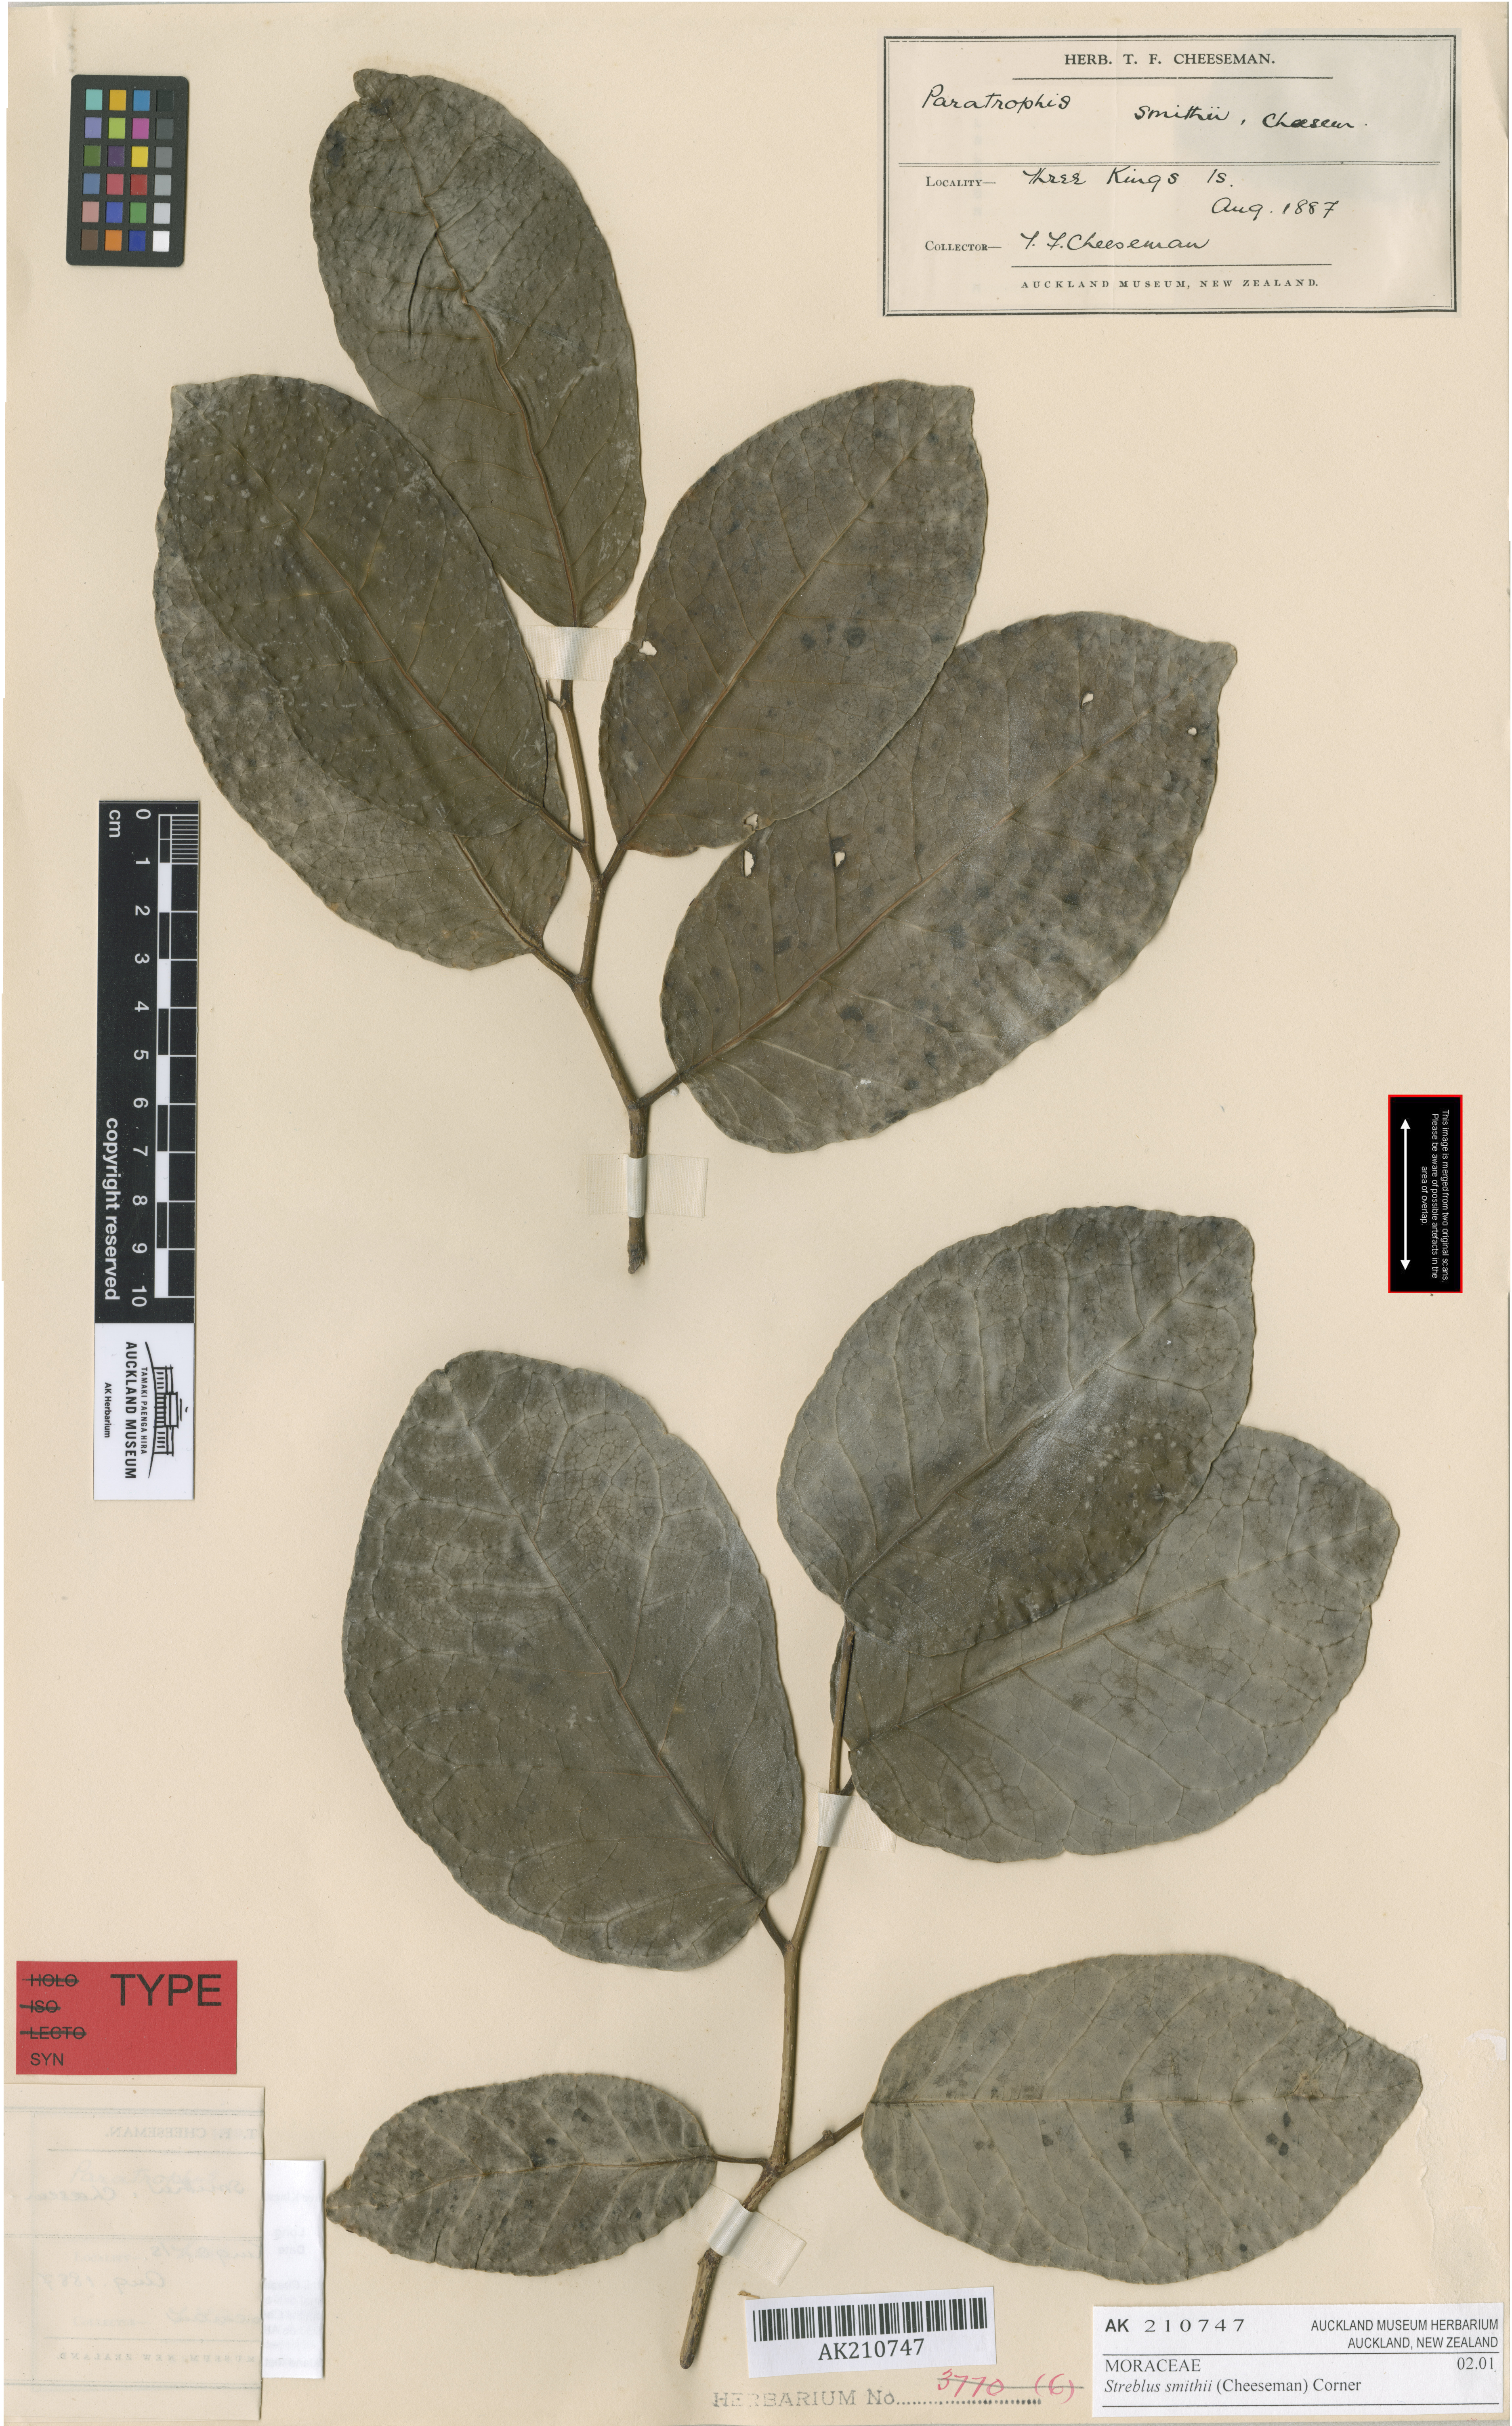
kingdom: Plantae
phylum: Tracheophyta
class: Magnoliopsida
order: Rosales
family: Moraceae
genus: Paratrophis
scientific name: Paratrophis smithii
